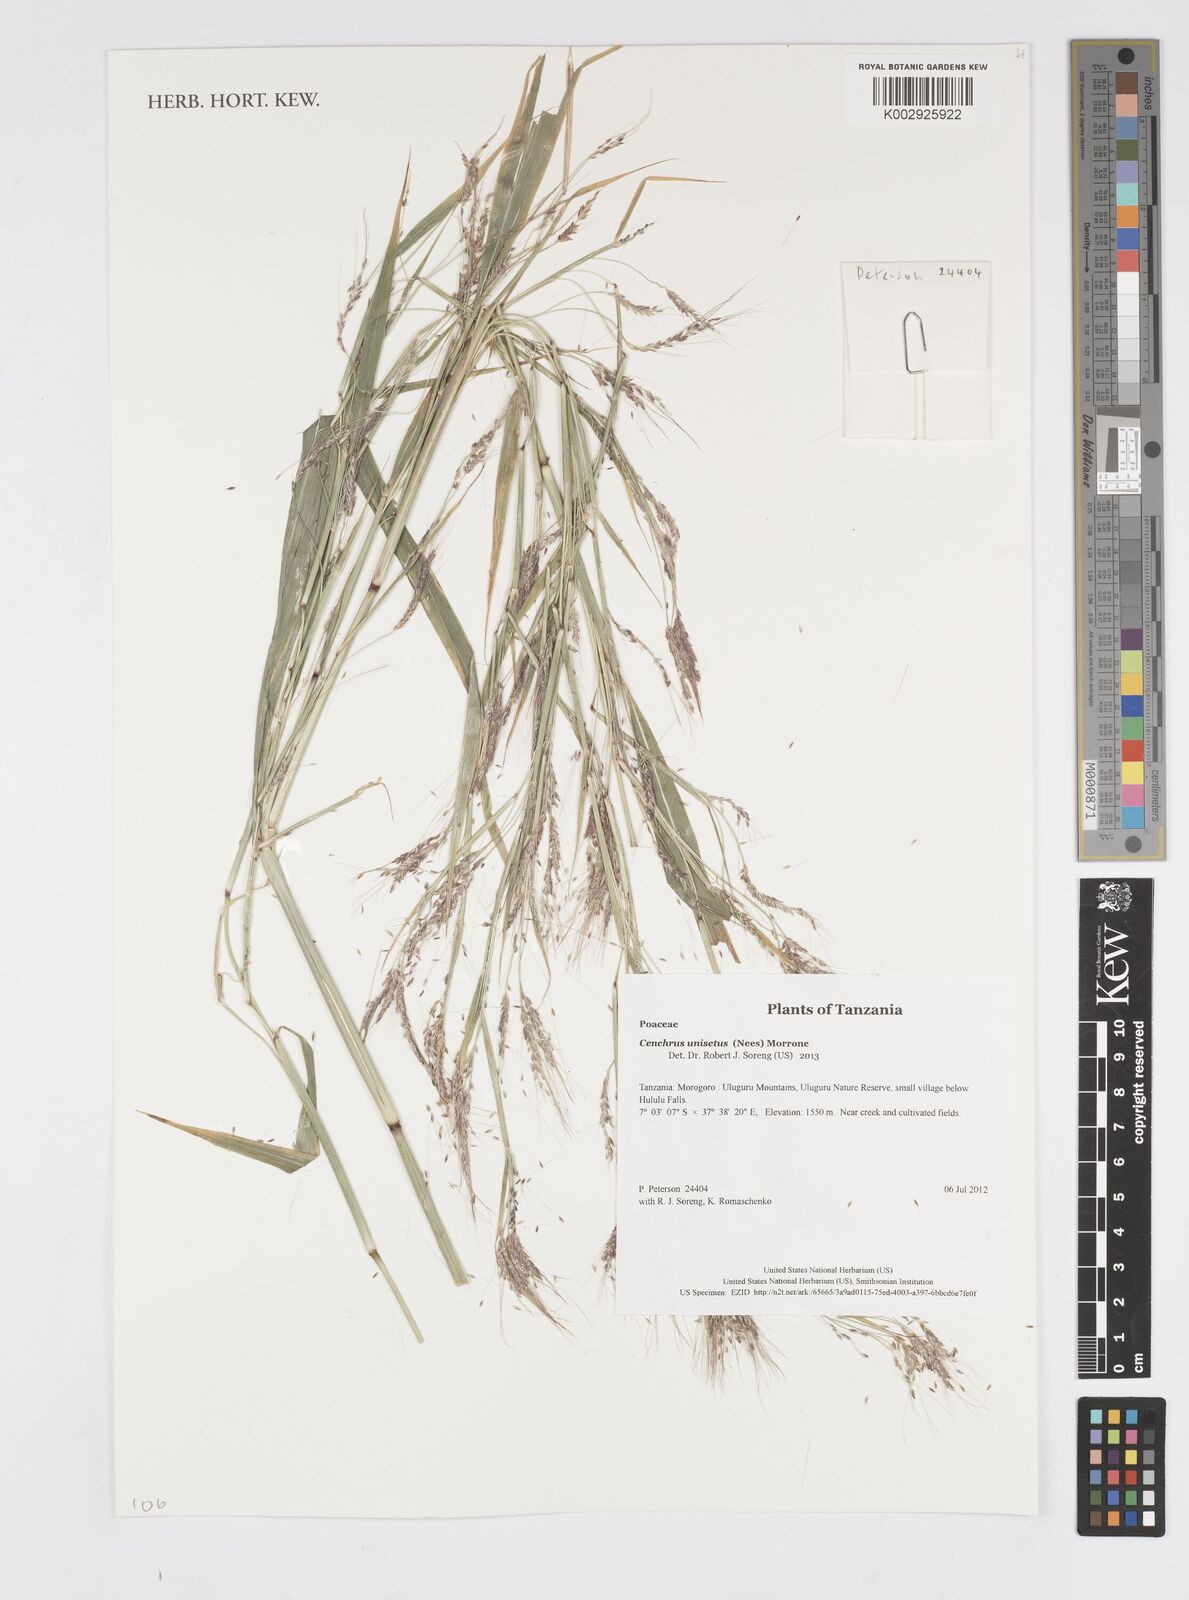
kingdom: Plantae
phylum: Tracheophyta
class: Liliopsida
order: Poales
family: Poaceae
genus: Cenchrus
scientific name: Cenchrus unisetus
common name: Natal grass
